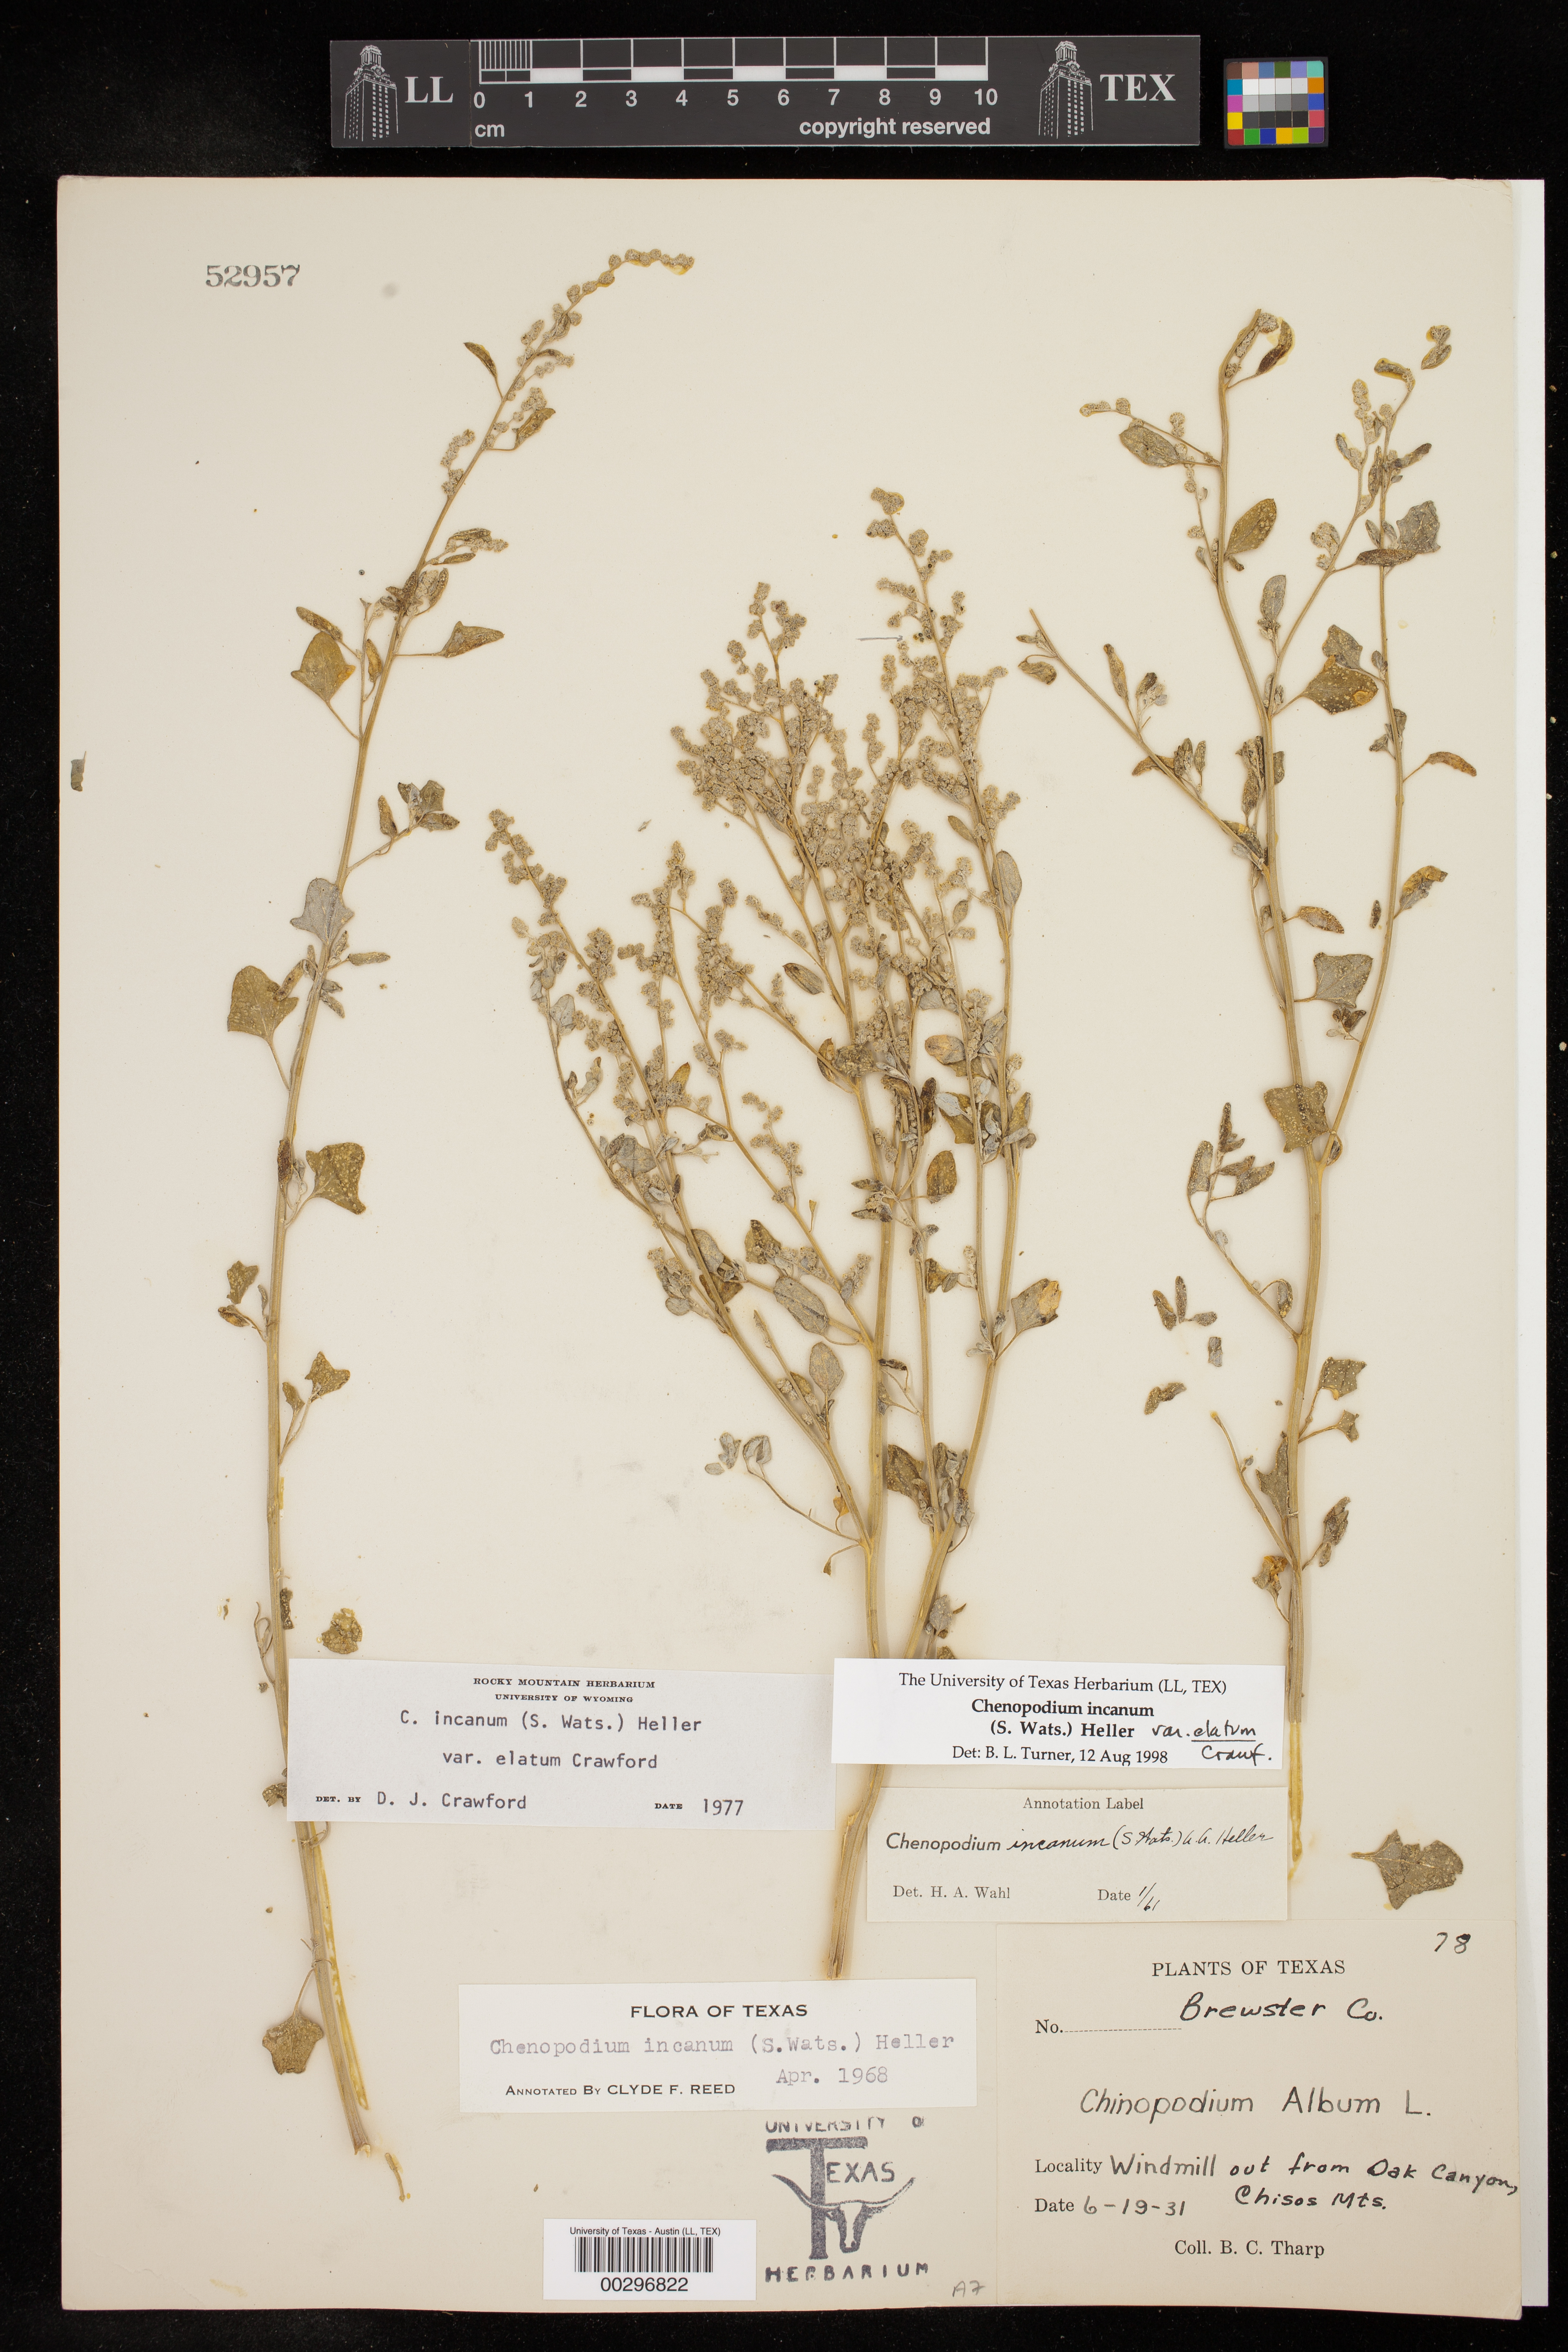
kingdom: Plantae
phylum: Tracheophyta
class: Magnoliopsida
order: Caryophyllales
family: Amaranthaceae
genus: Chenopodium
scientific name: Chenopodium incanum
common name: Hoary goosefoot
